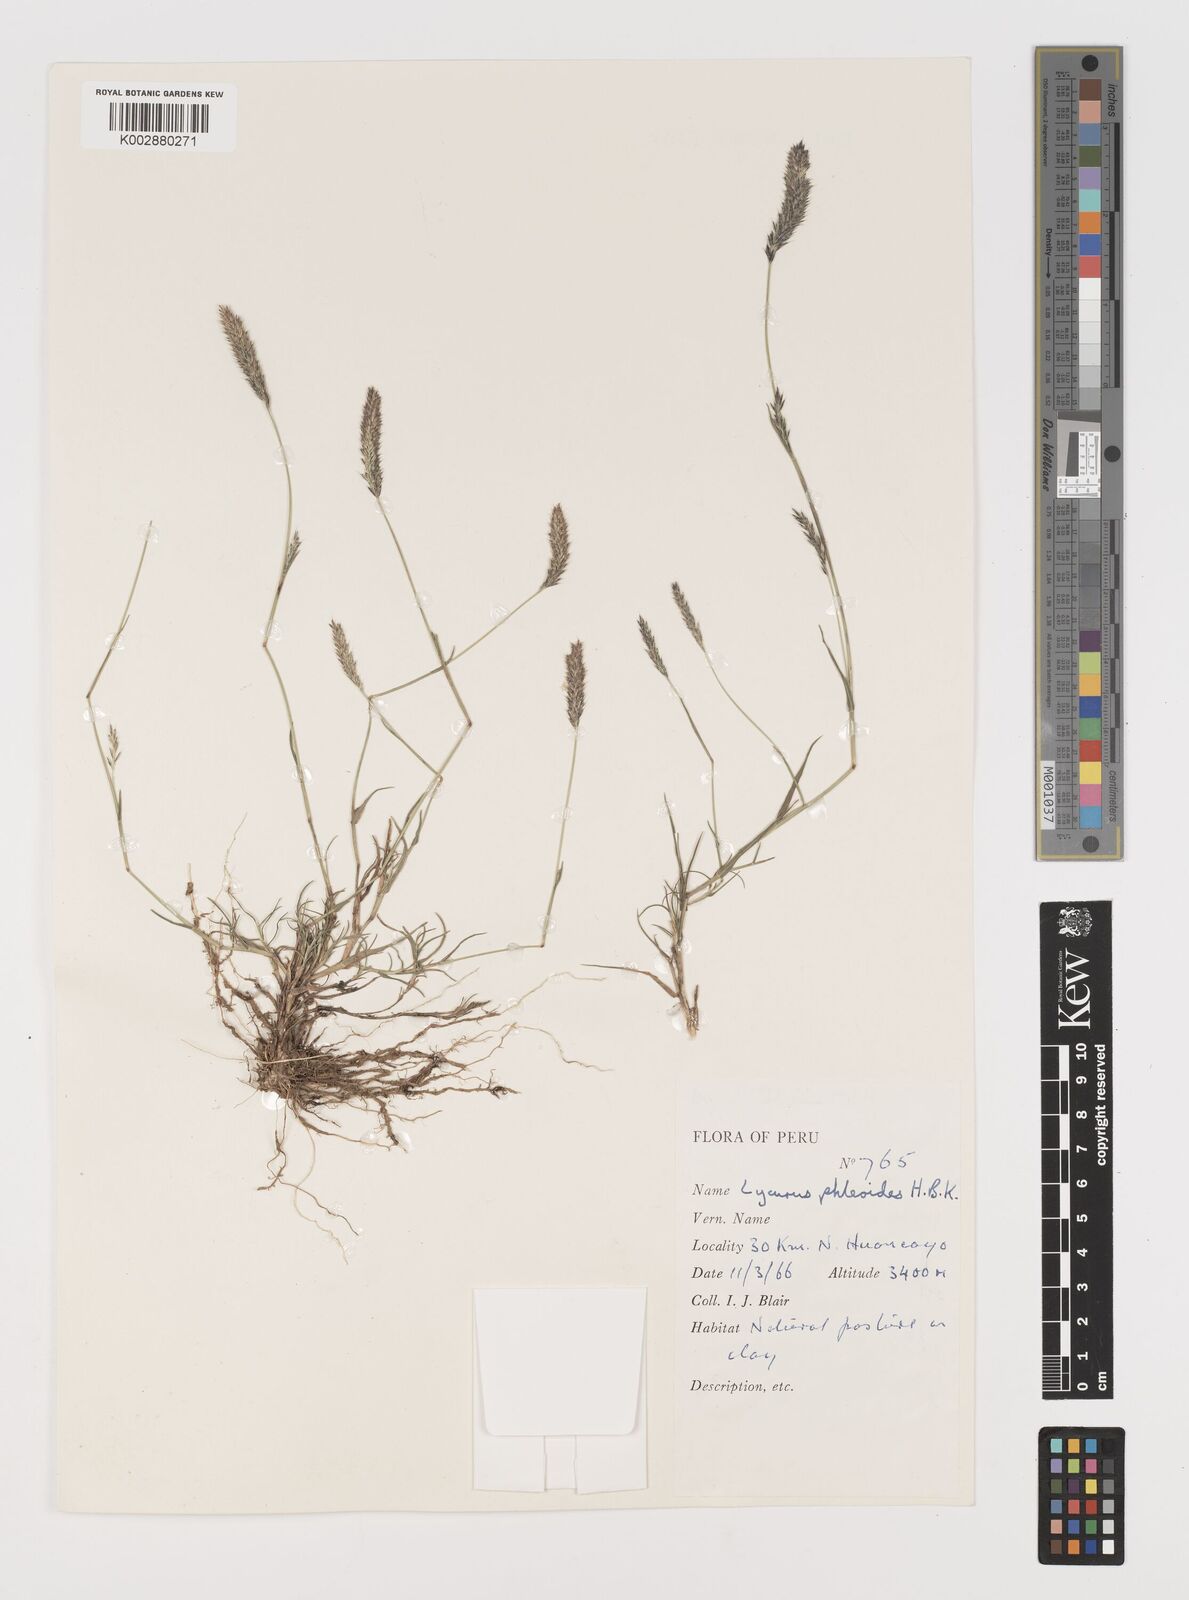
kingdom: Plantae
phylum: Tracheophyta
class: Liliopsida
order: Poales
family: Poaceae
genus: Muhlenbergia
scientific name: Muhlenbergia phalaroides
